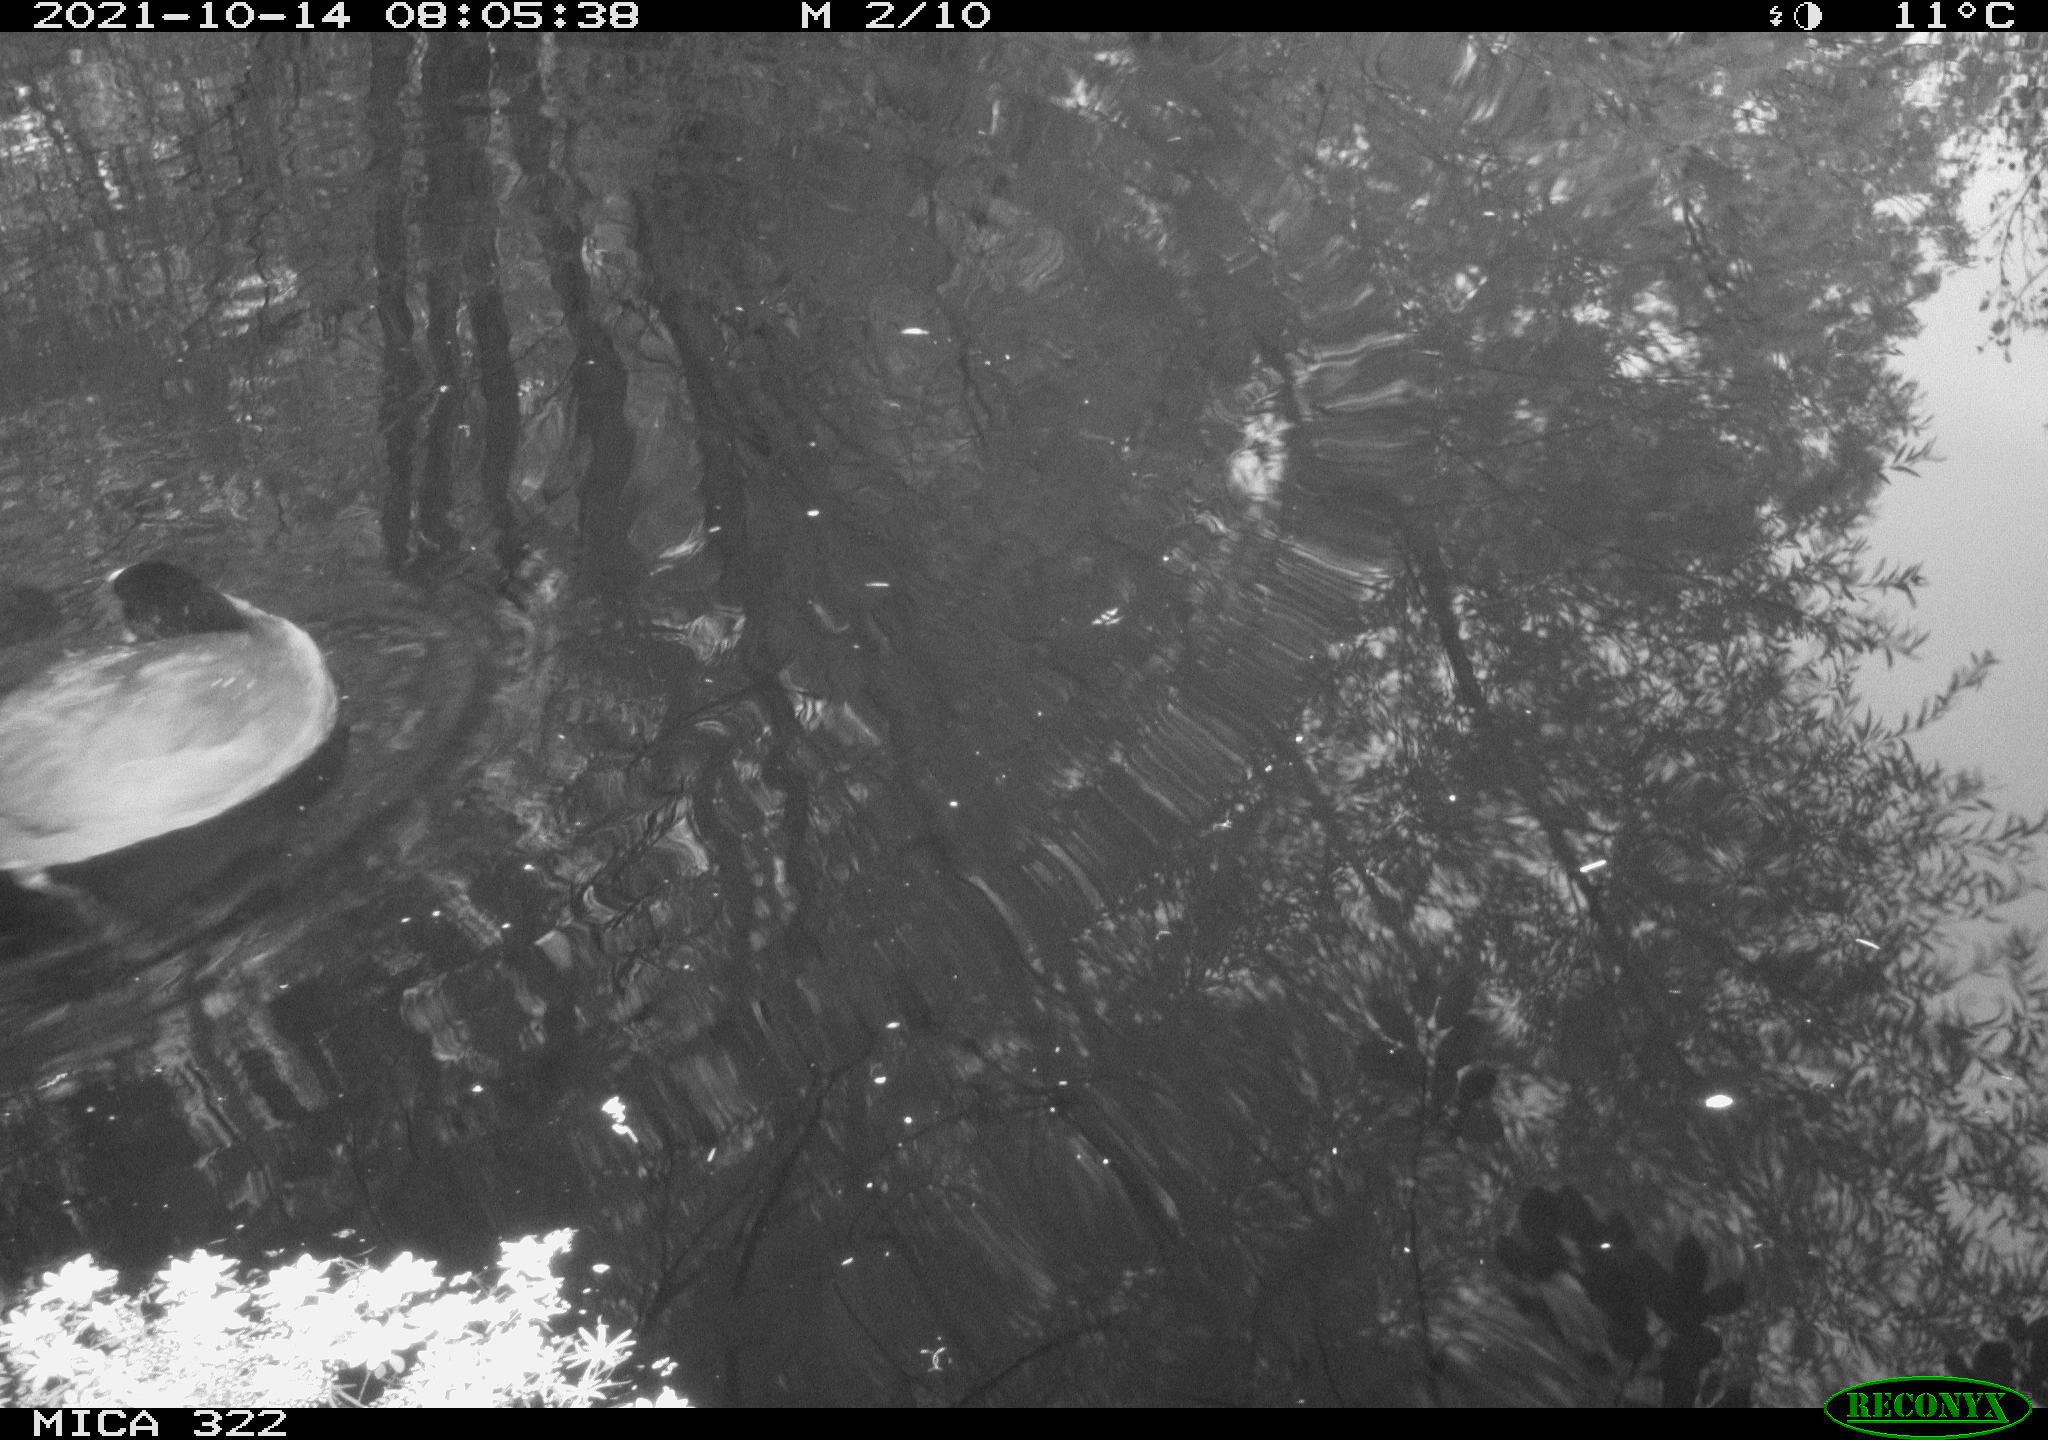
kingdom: Animalia
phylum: Chordata
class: Aves
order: Gruiformes
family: Rallidae
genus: Fulica
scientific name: Fulica atra
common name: Eurasian coot
